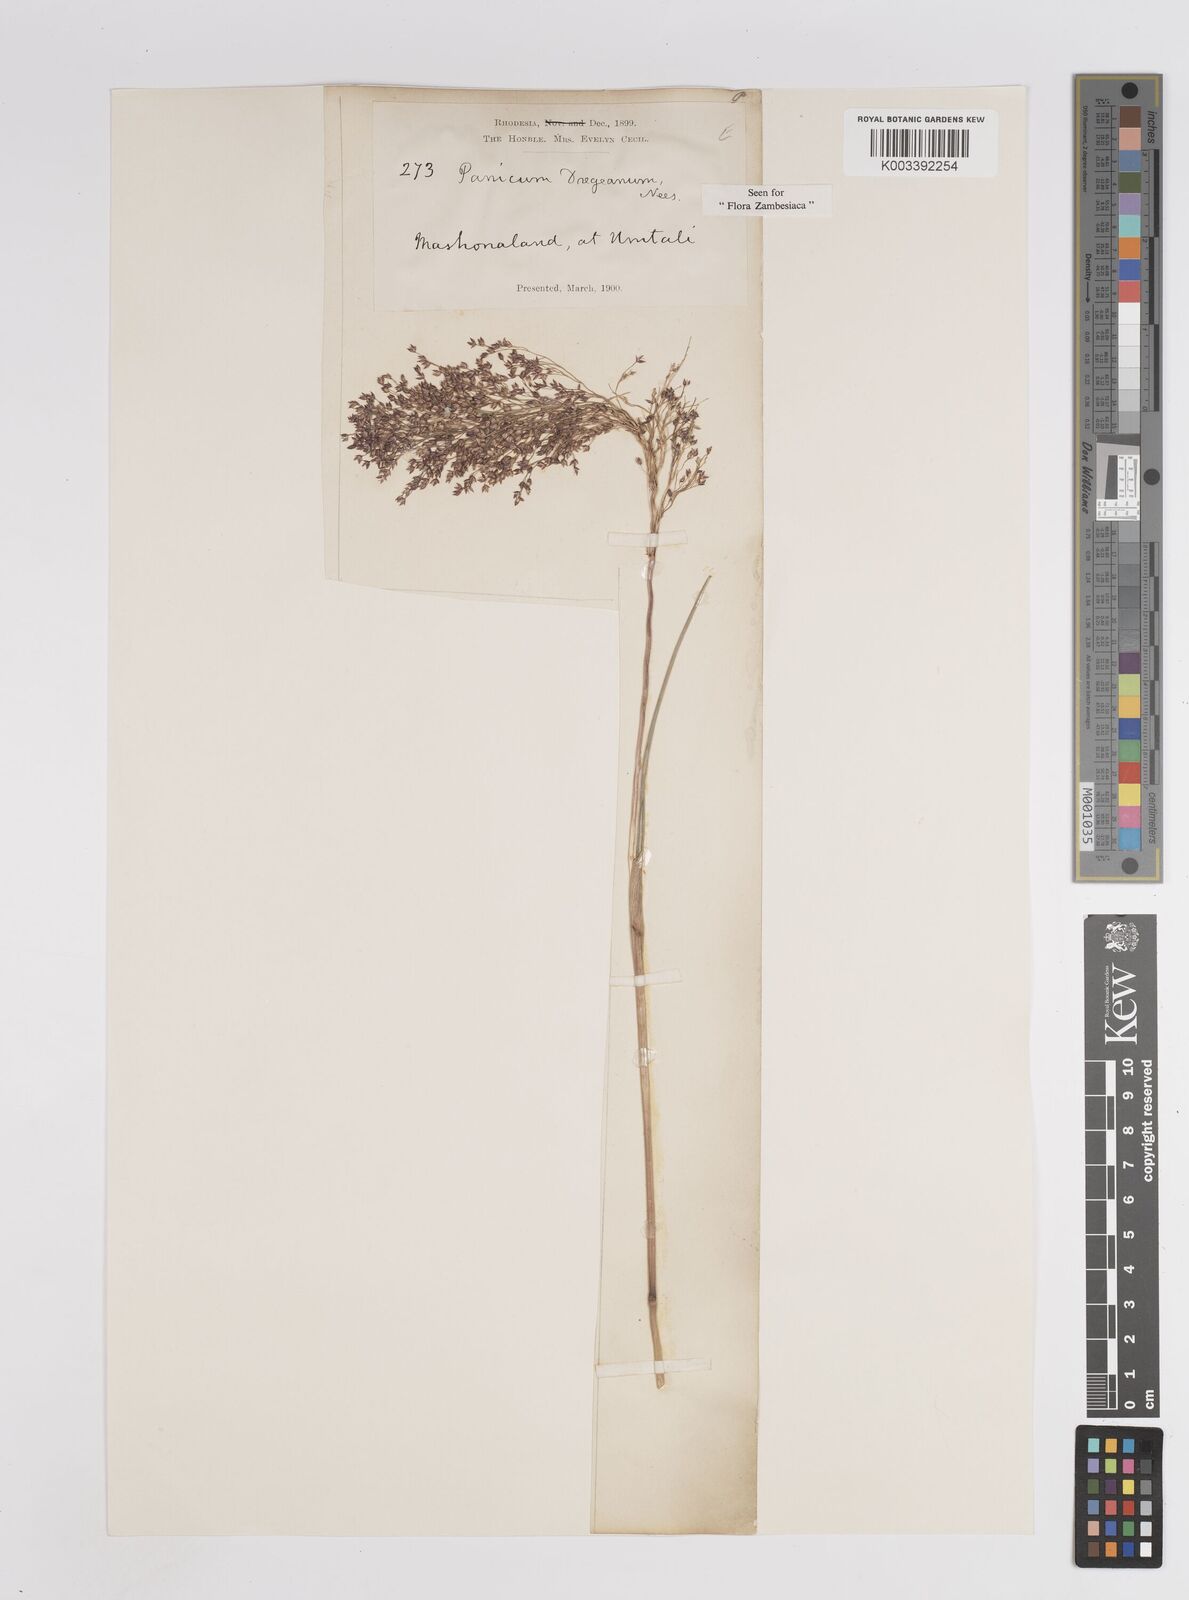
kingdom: Plantae
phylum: Tracheophyta
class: Liliopsida
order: Poales
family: Poaceae
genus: Panicum
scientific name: Panicum dregeanum
